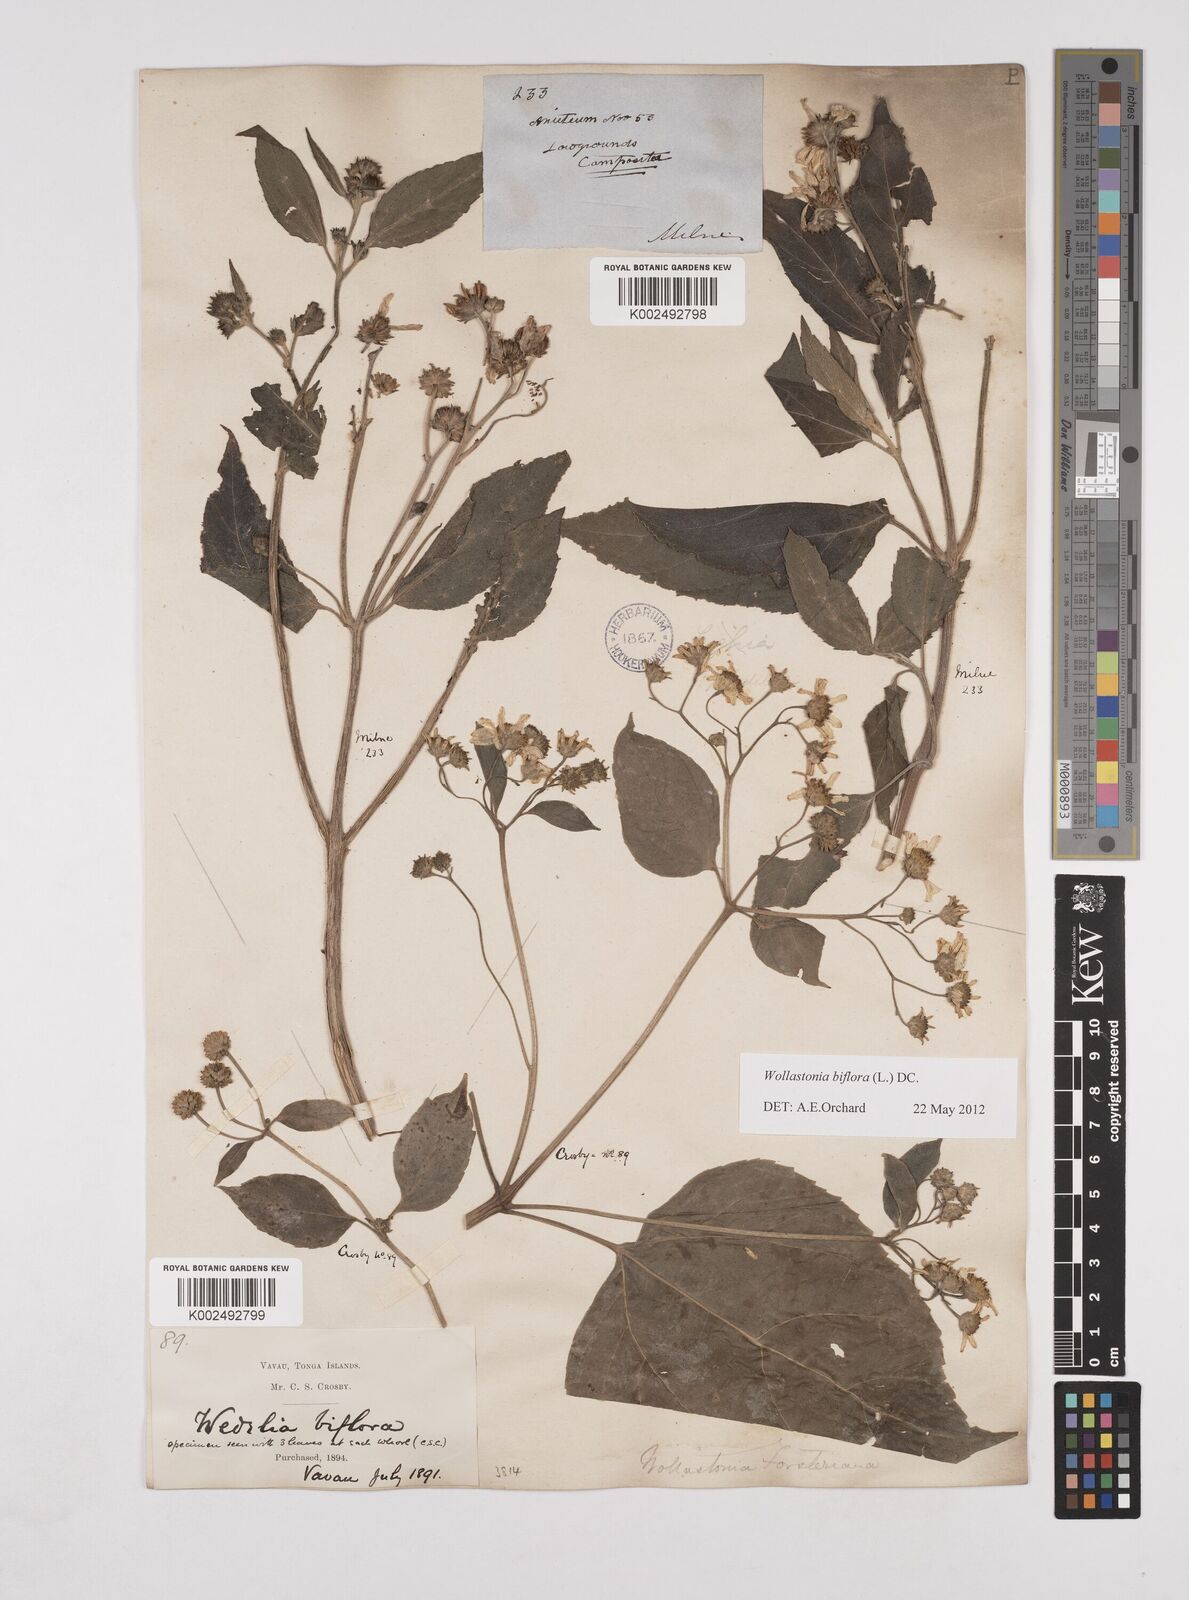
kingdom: Plantae
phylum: Tracheophyta
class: Magnoliopsida
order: Asterales
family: Asteraceae
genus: Wollastonia
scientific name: Wollastonia biflora
